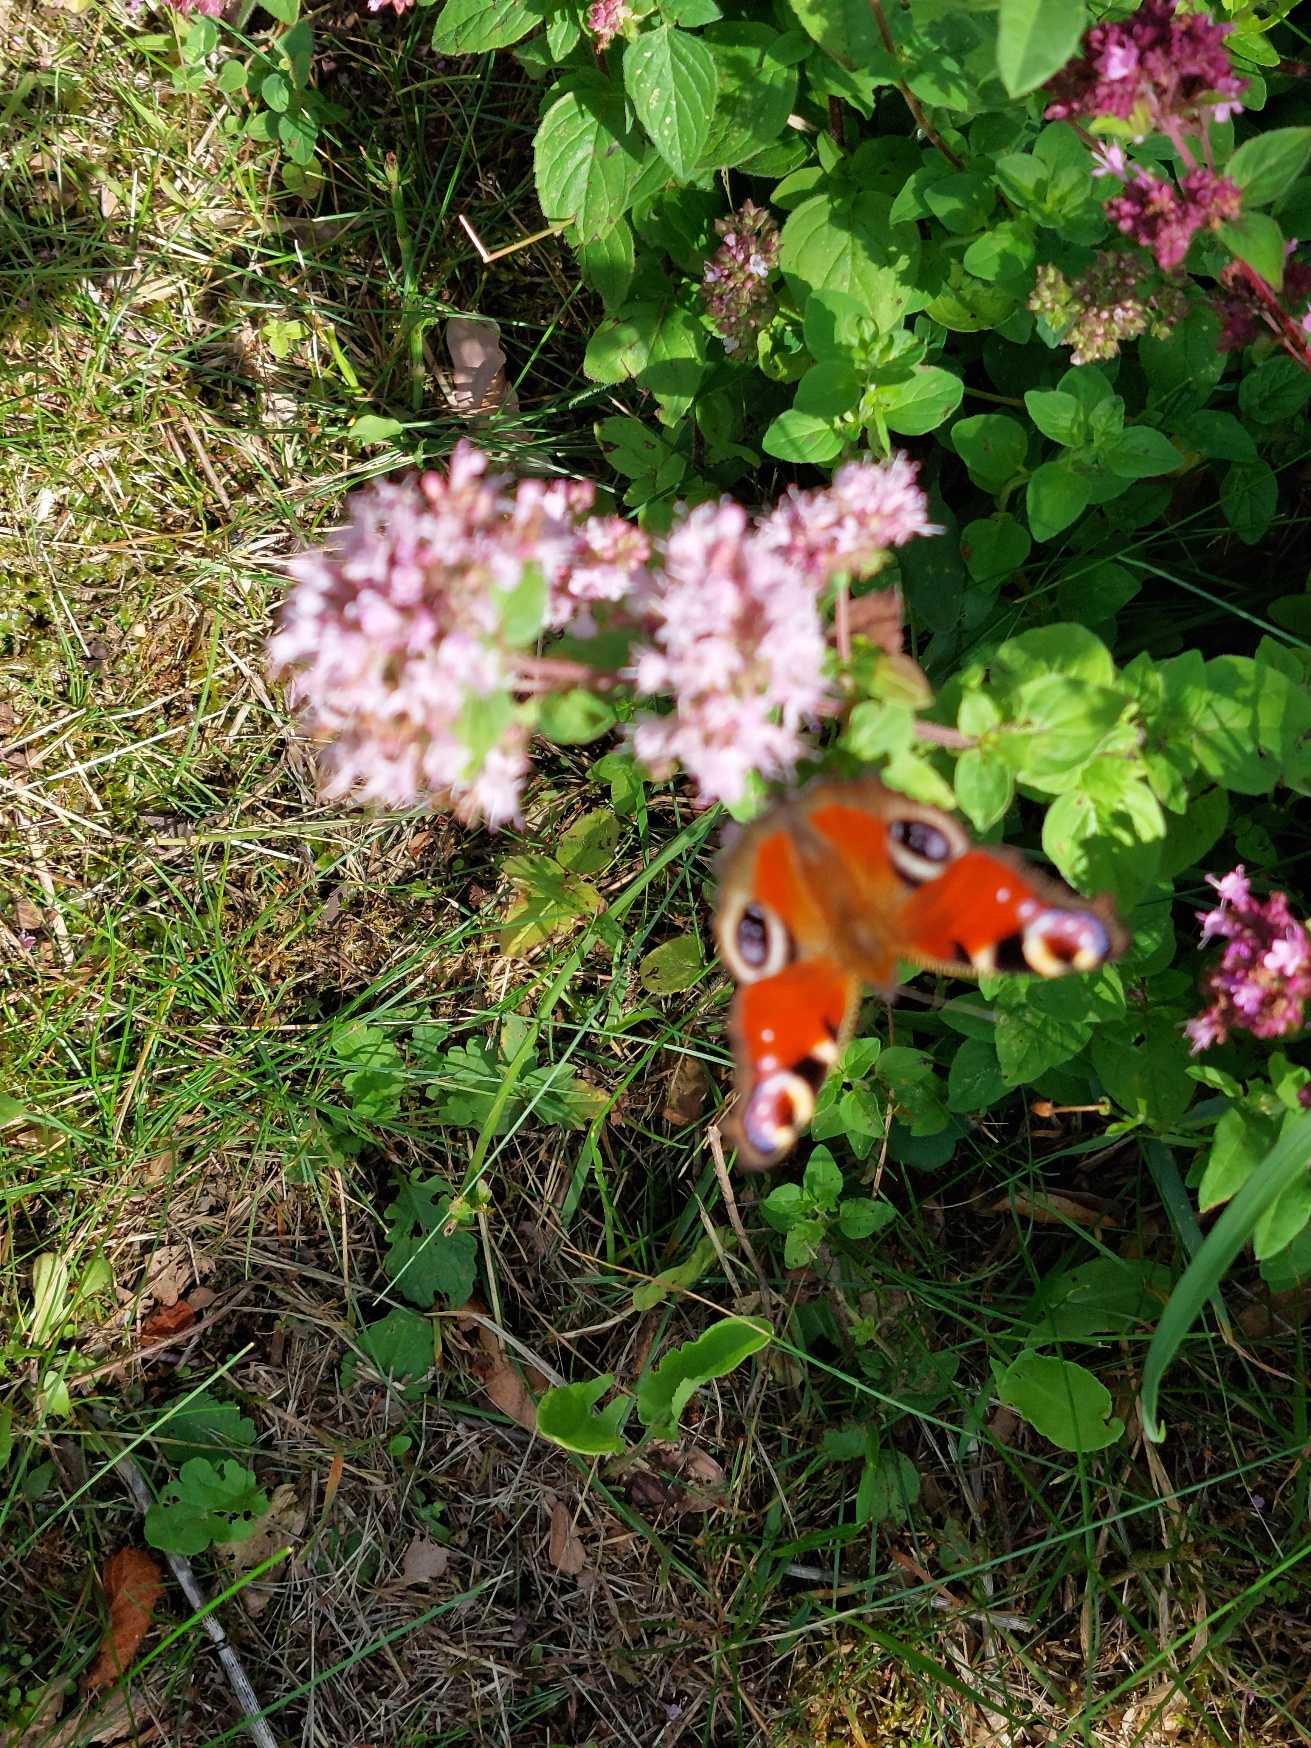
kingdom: Animalia
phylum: Arthropoda
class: Insecta
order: Lepidoptera
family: Nymphalidae
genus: Aglais
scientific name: Aglais io
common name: Dagpåfugleøje
